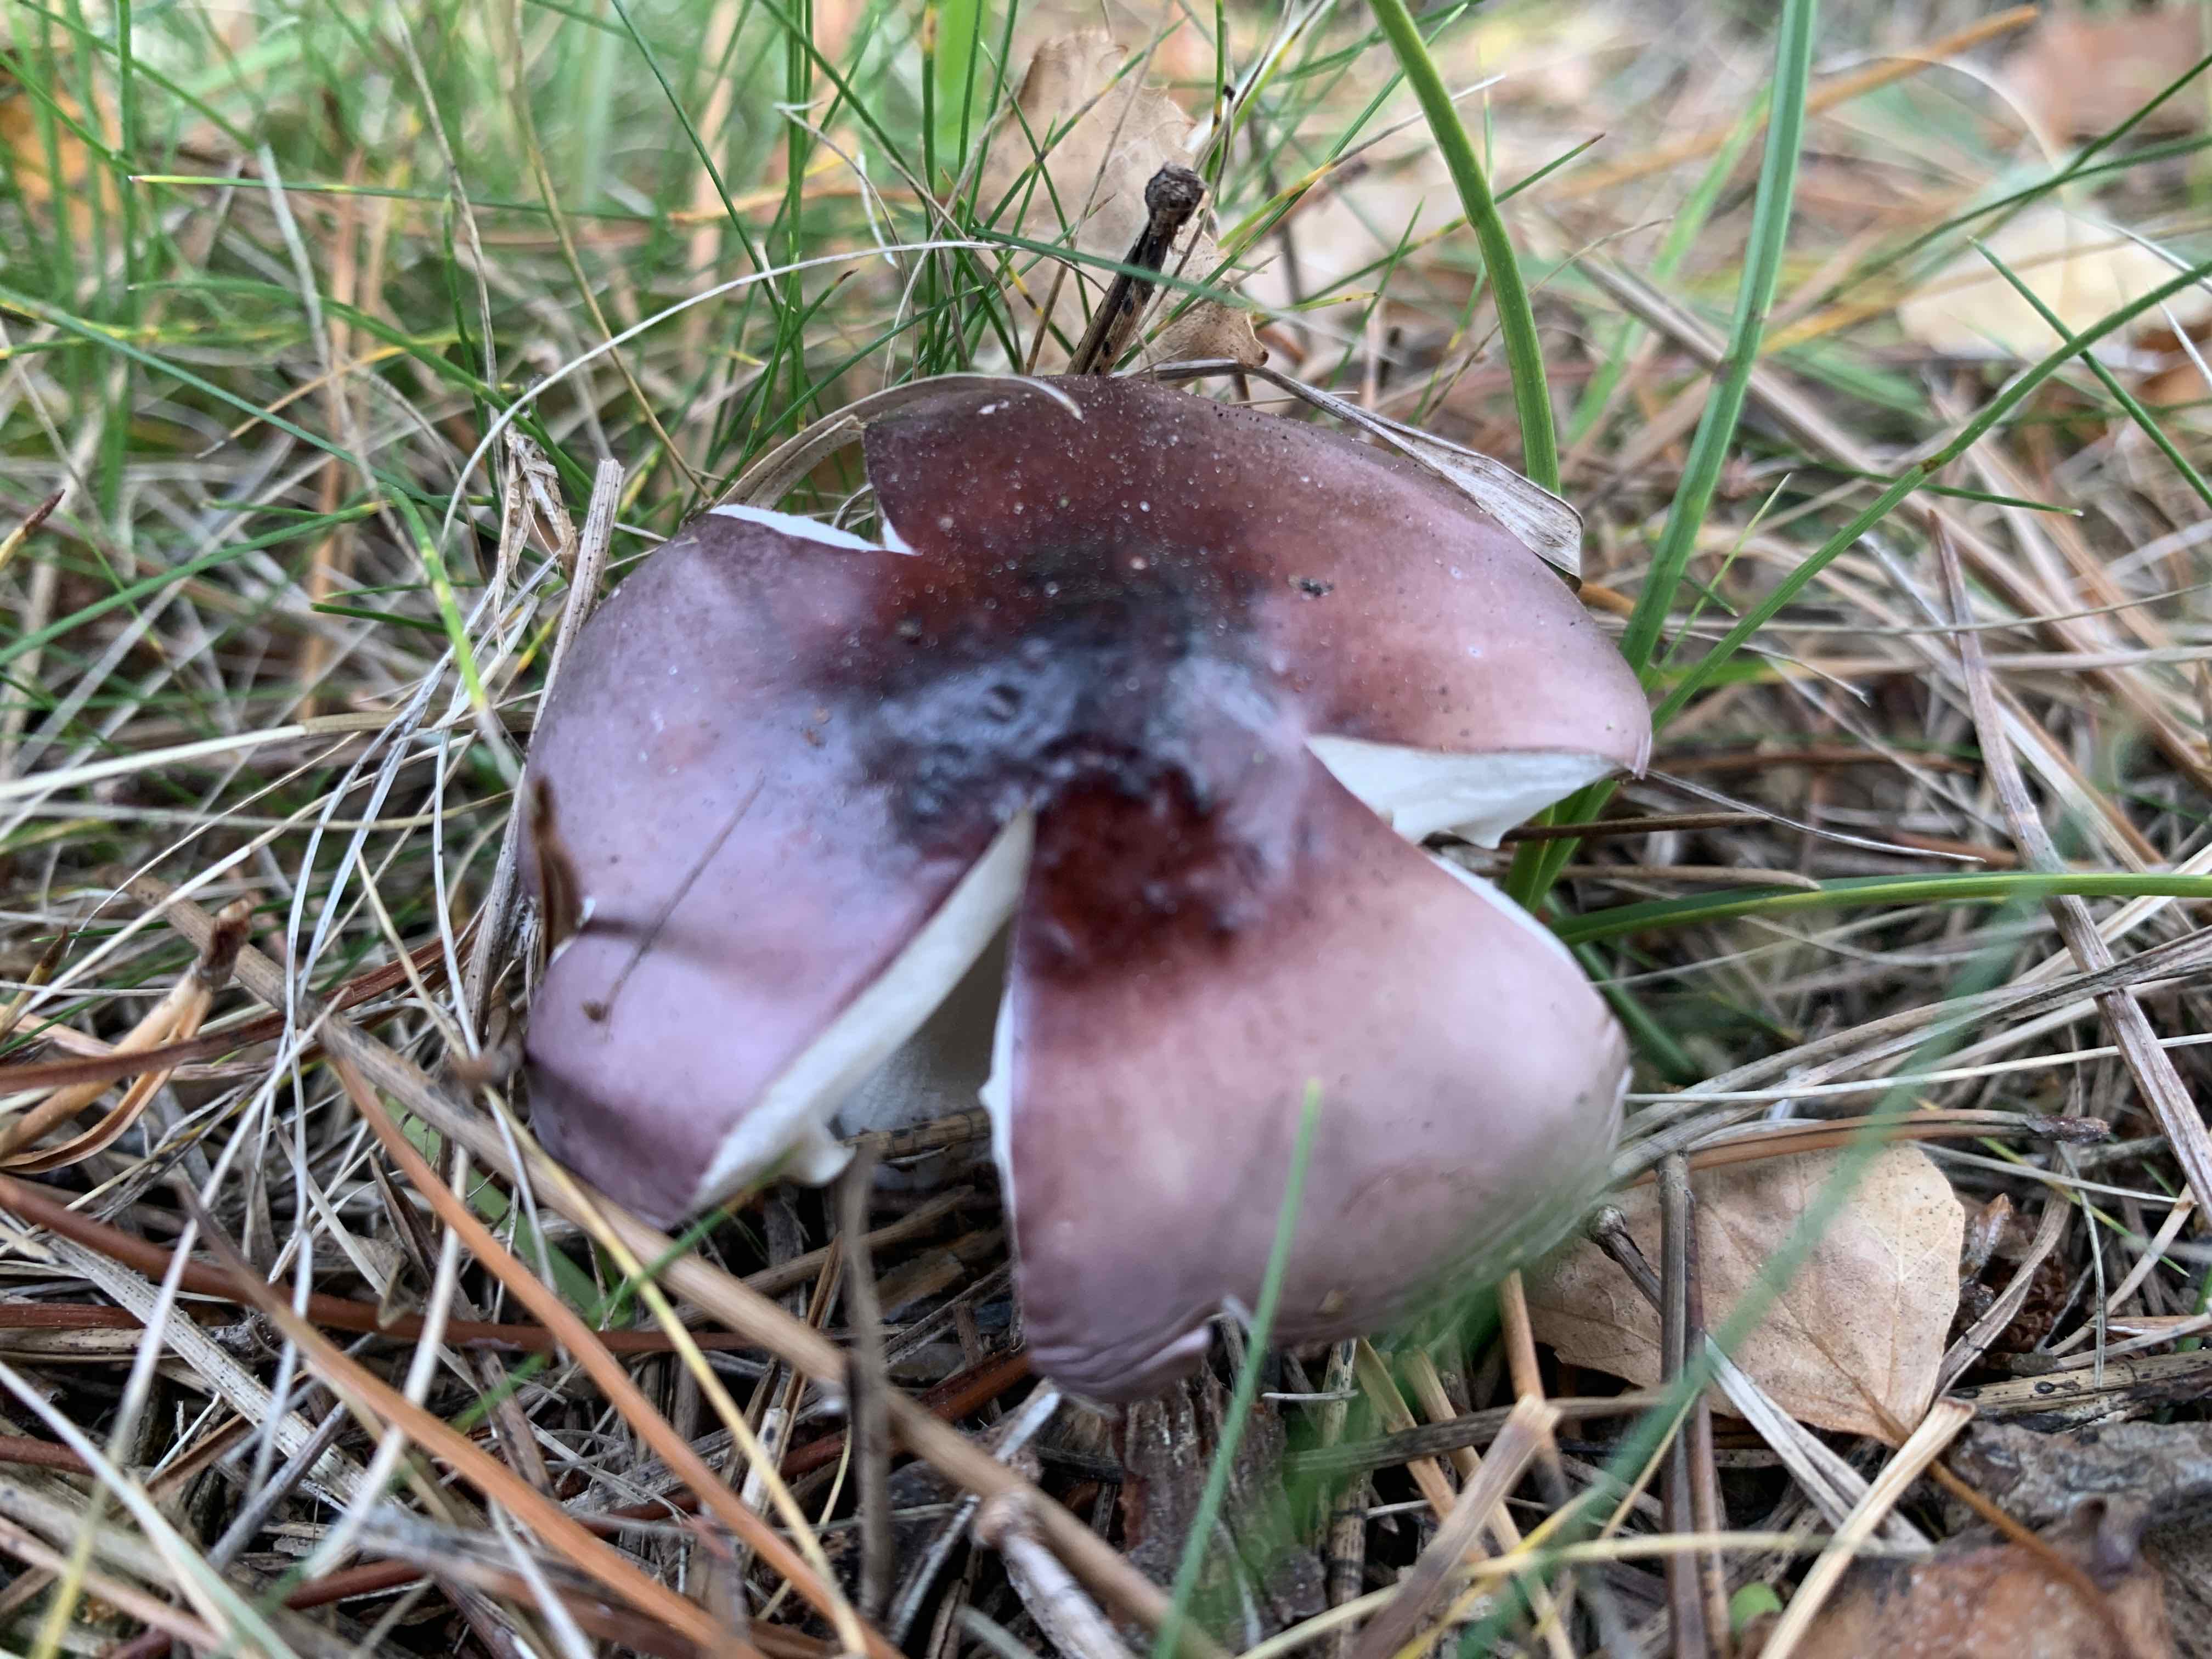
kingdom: Fungi
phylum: Basidiomycota
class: Agaricomycetes
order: Russulales
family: Russulaceae
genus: Russula
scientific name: Russula caerulea
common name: puklet skørhat
